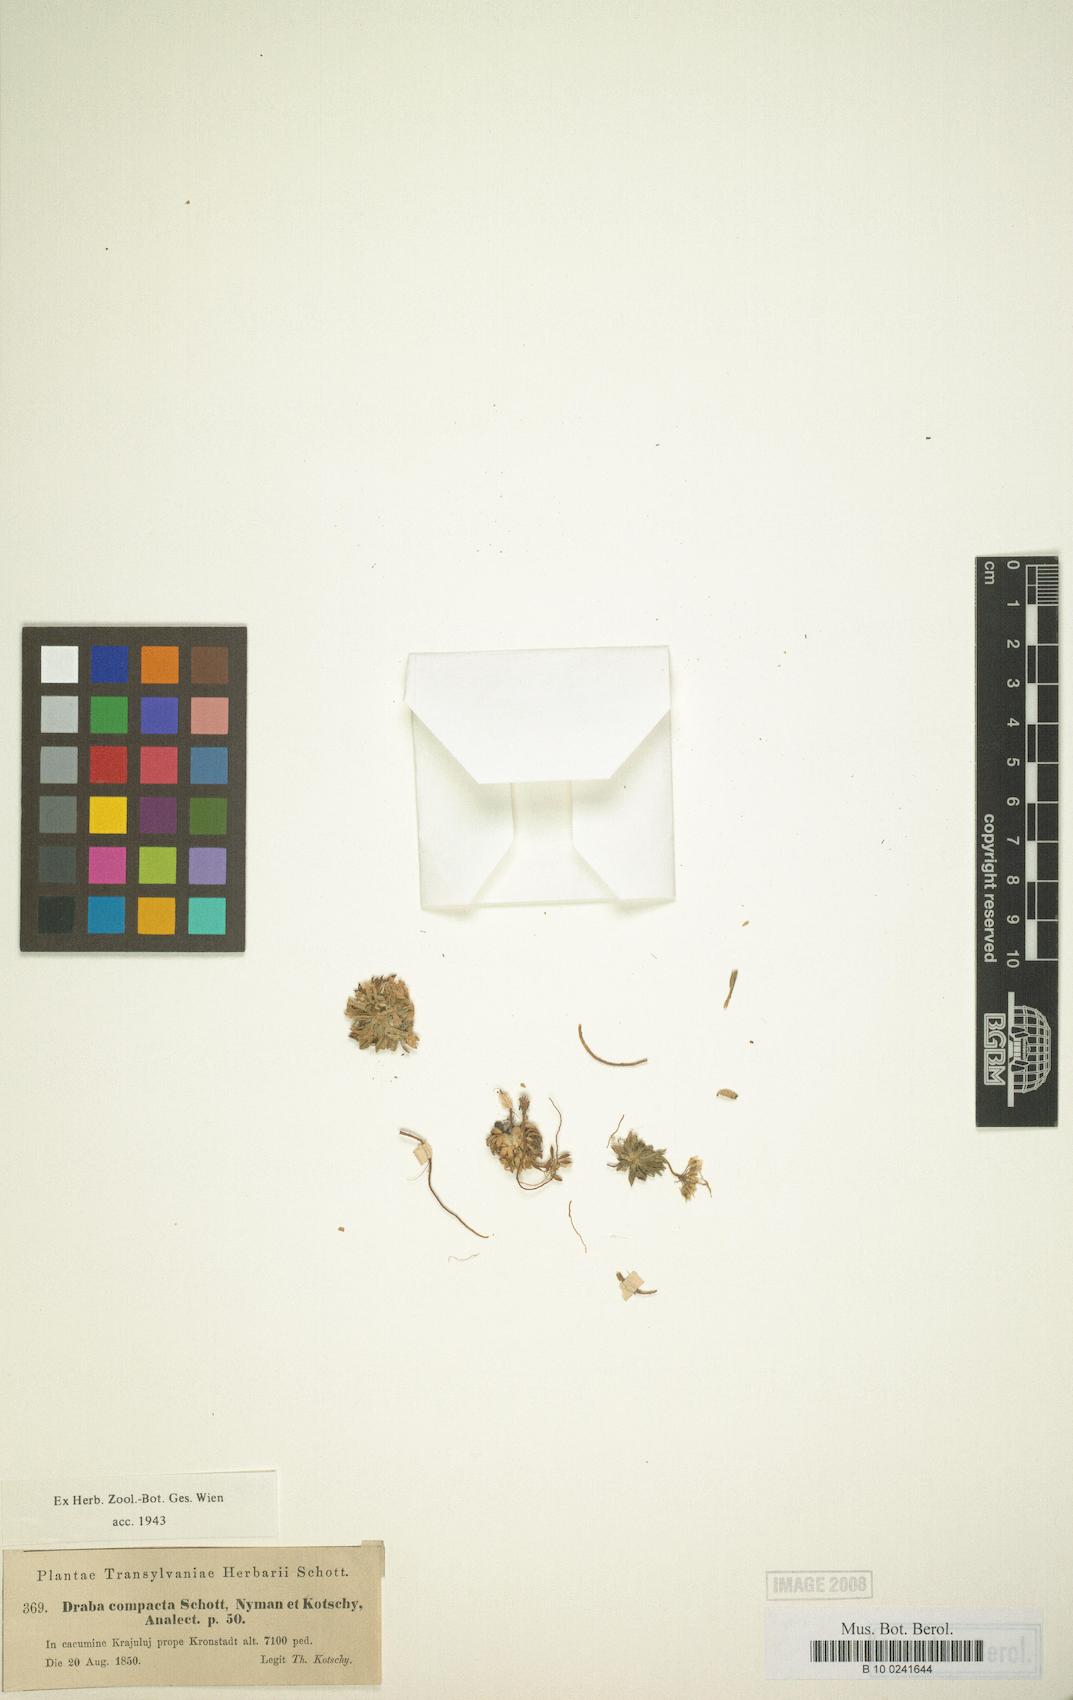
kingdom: Plantae
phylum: Tracheophyta
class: Magnoliopsida
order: Brassicales
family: Brassicaceae
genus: Draba
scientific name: Draba lasiocarpa
